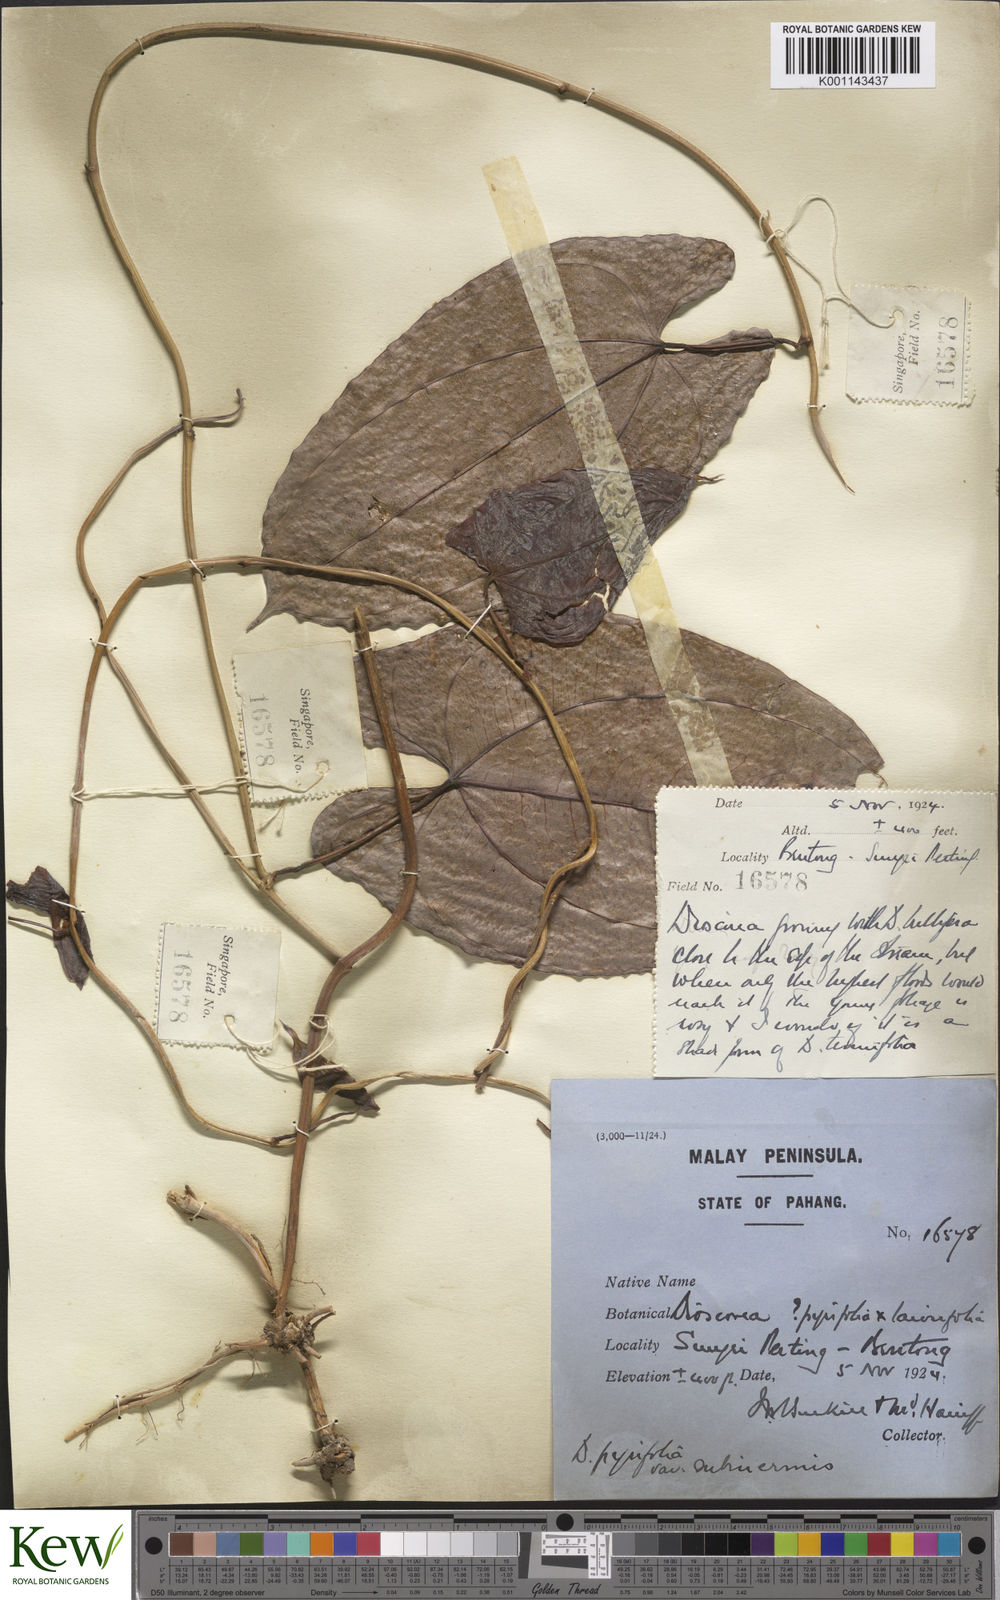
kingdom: Plantae
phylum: Tracheophyta
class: Liliopsida
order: Dioscoreales
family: Dioscoreaceae
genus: Dioscorea
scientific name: Dioscorea pyrifolia
